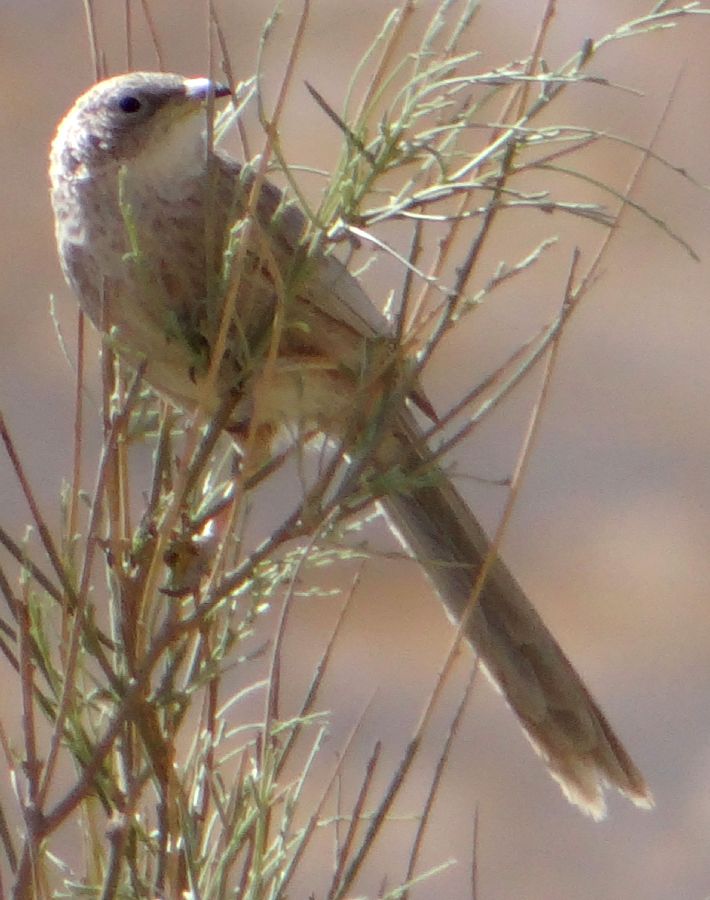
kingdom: Animalia
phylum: Chordata
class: Aves
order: Passeriformes
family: Leiothrichidae
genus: Turdoides
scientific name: Turdoides squamiceps
